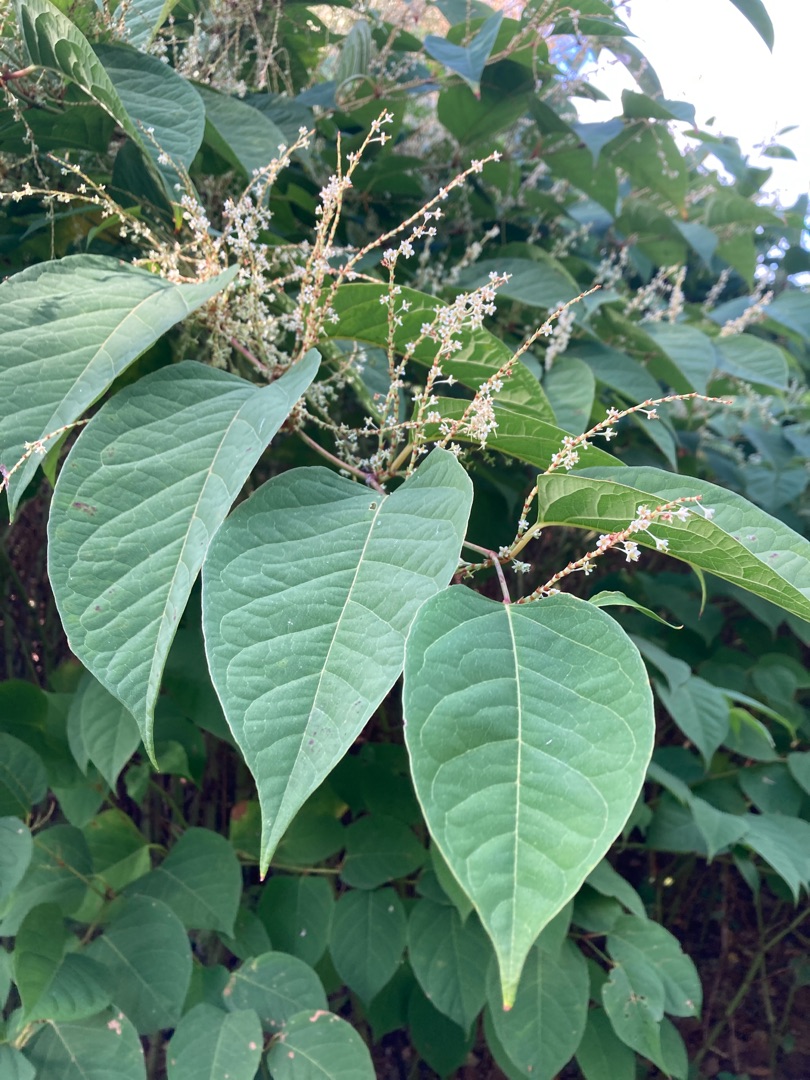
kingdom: Plantae
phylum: Tracheophyta
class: Magnoliopsida
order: Caryophyllales
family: Polygonaceae
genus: Reynoutria
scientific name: Reynoutria japonica
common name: Japan-pileurt
